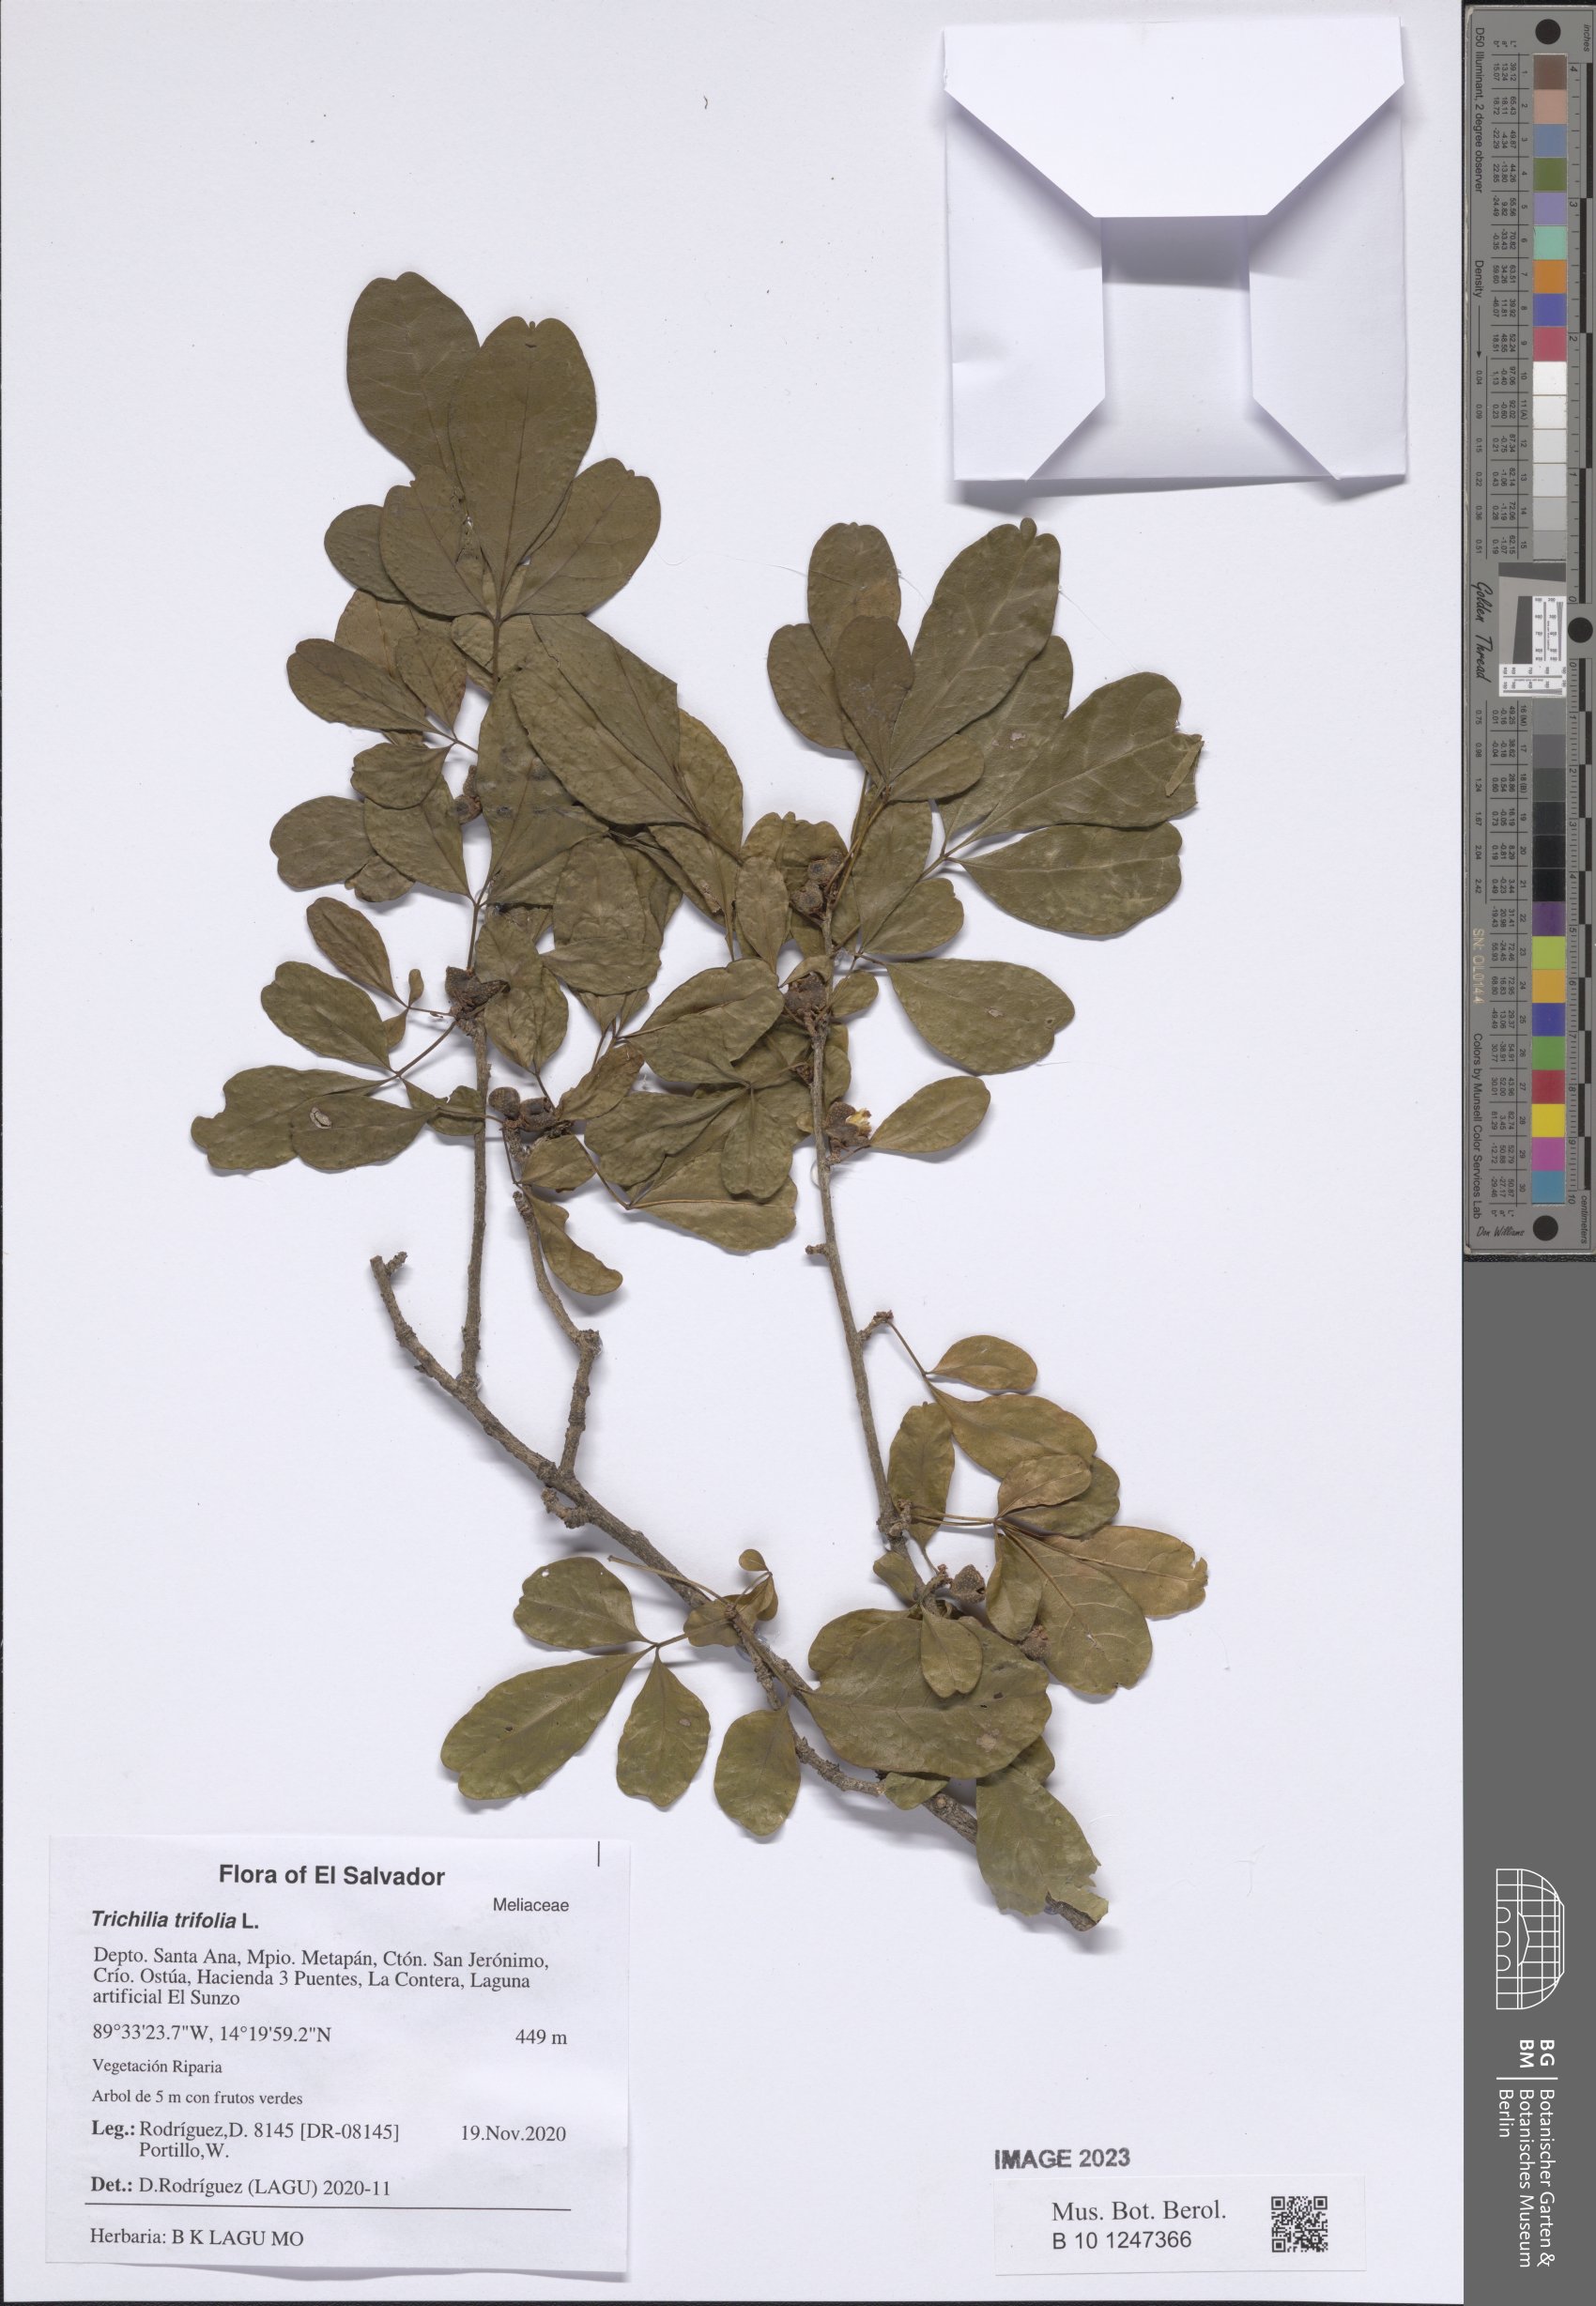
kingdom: Plantae
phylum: Tracheophyta
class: Magnoliopsida
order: Sapindales
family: Meliaceae
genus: Trichilia
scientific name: Trichilia trifolia
